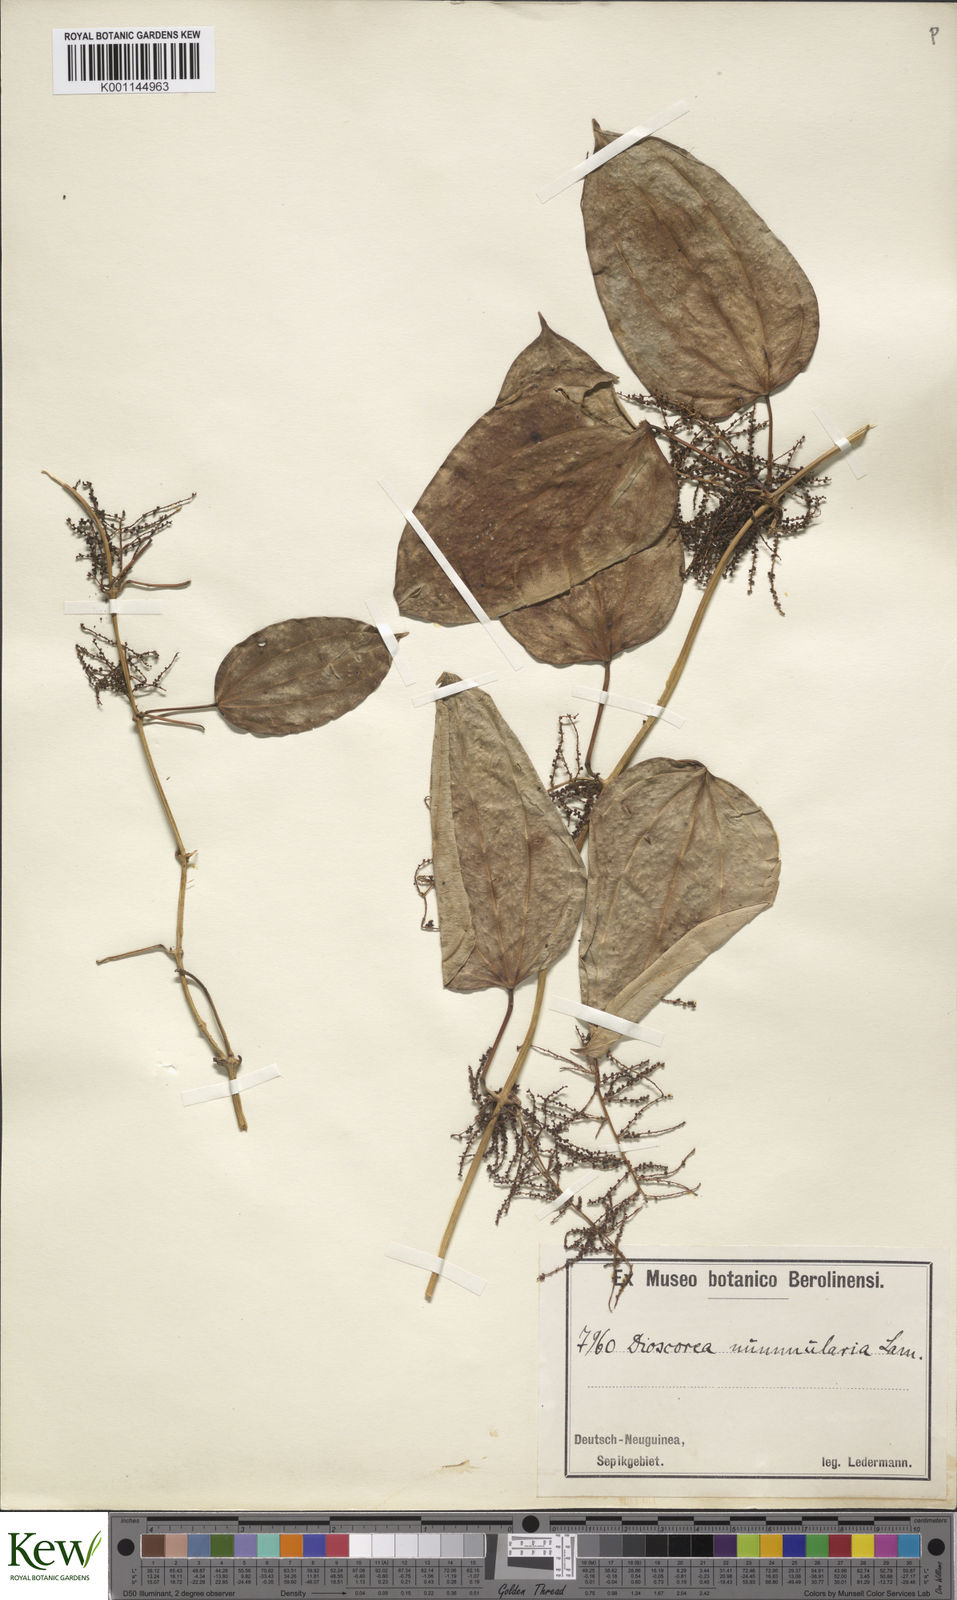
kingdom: Plantae
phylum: Tracheophyta
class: Liliopsida
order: Dioscoreales
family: Dioscoreaceae
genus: Dioscorea
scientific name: Dioscorea nummularia
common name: Pacific yam
